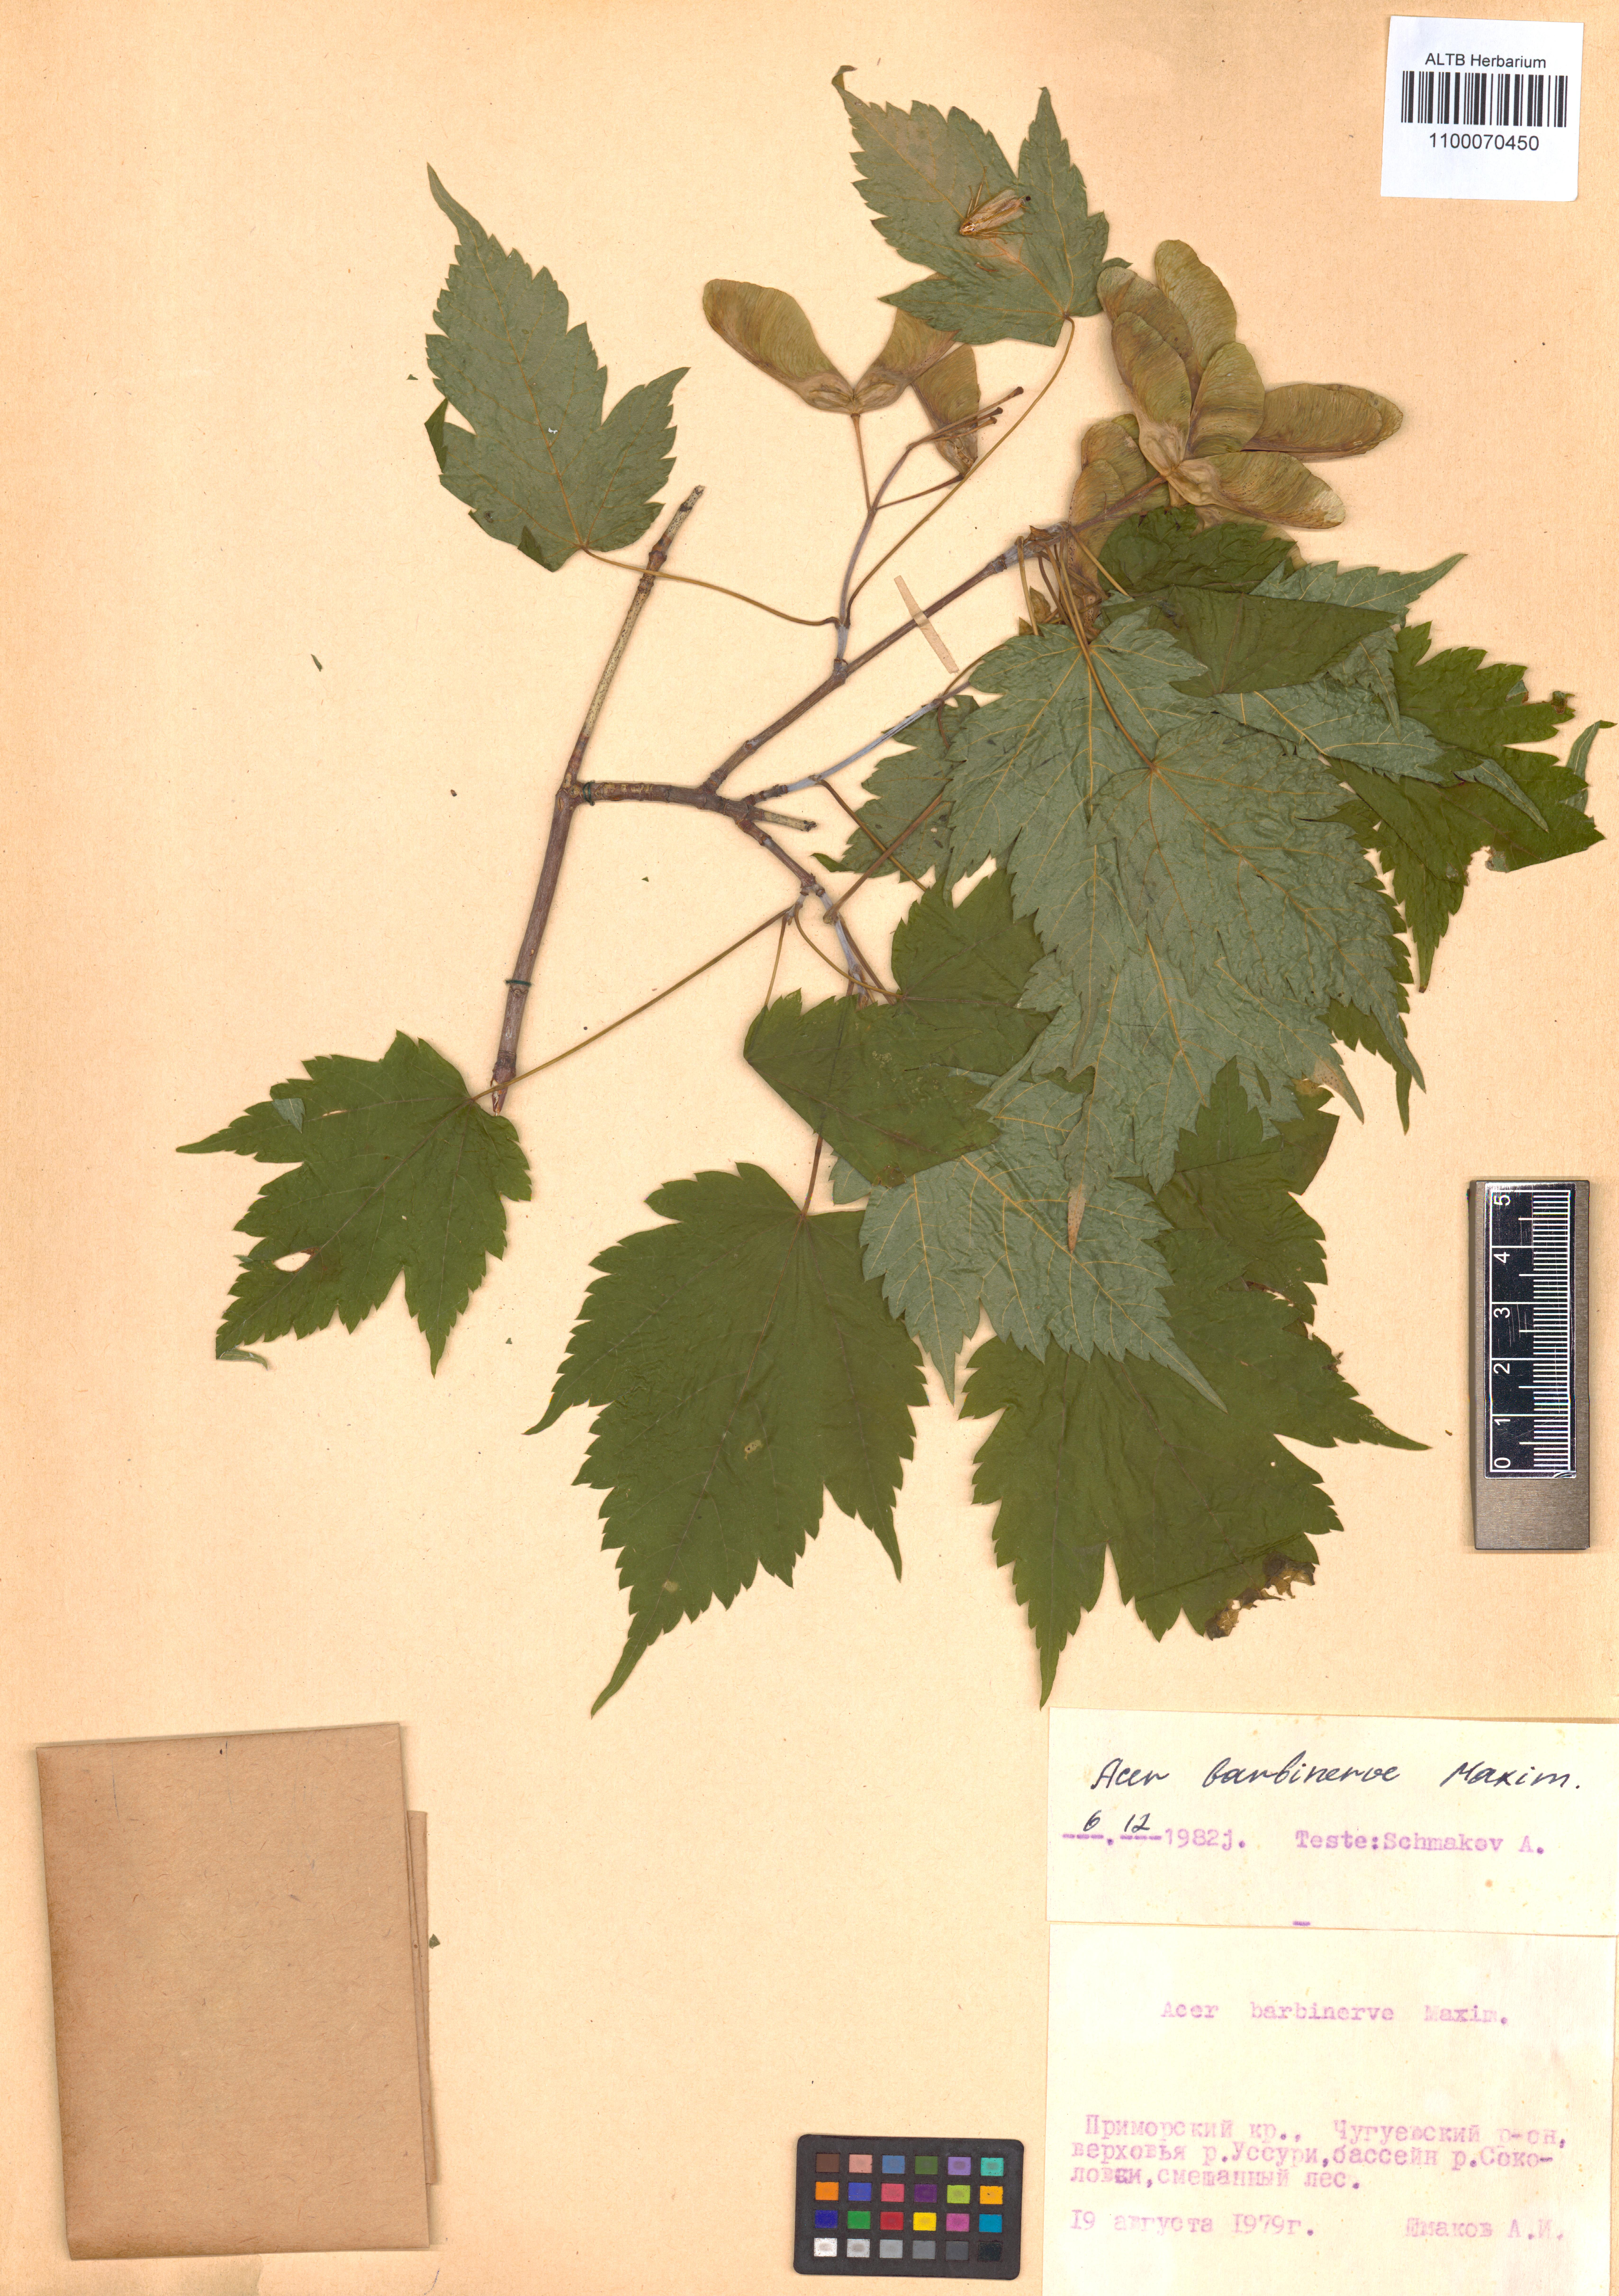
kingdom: Plantae
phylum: Tracheophyta
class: Magnoliopsida
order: Sapindales
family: Sapindaceae
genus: Acer
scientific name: Acer barbinerve
